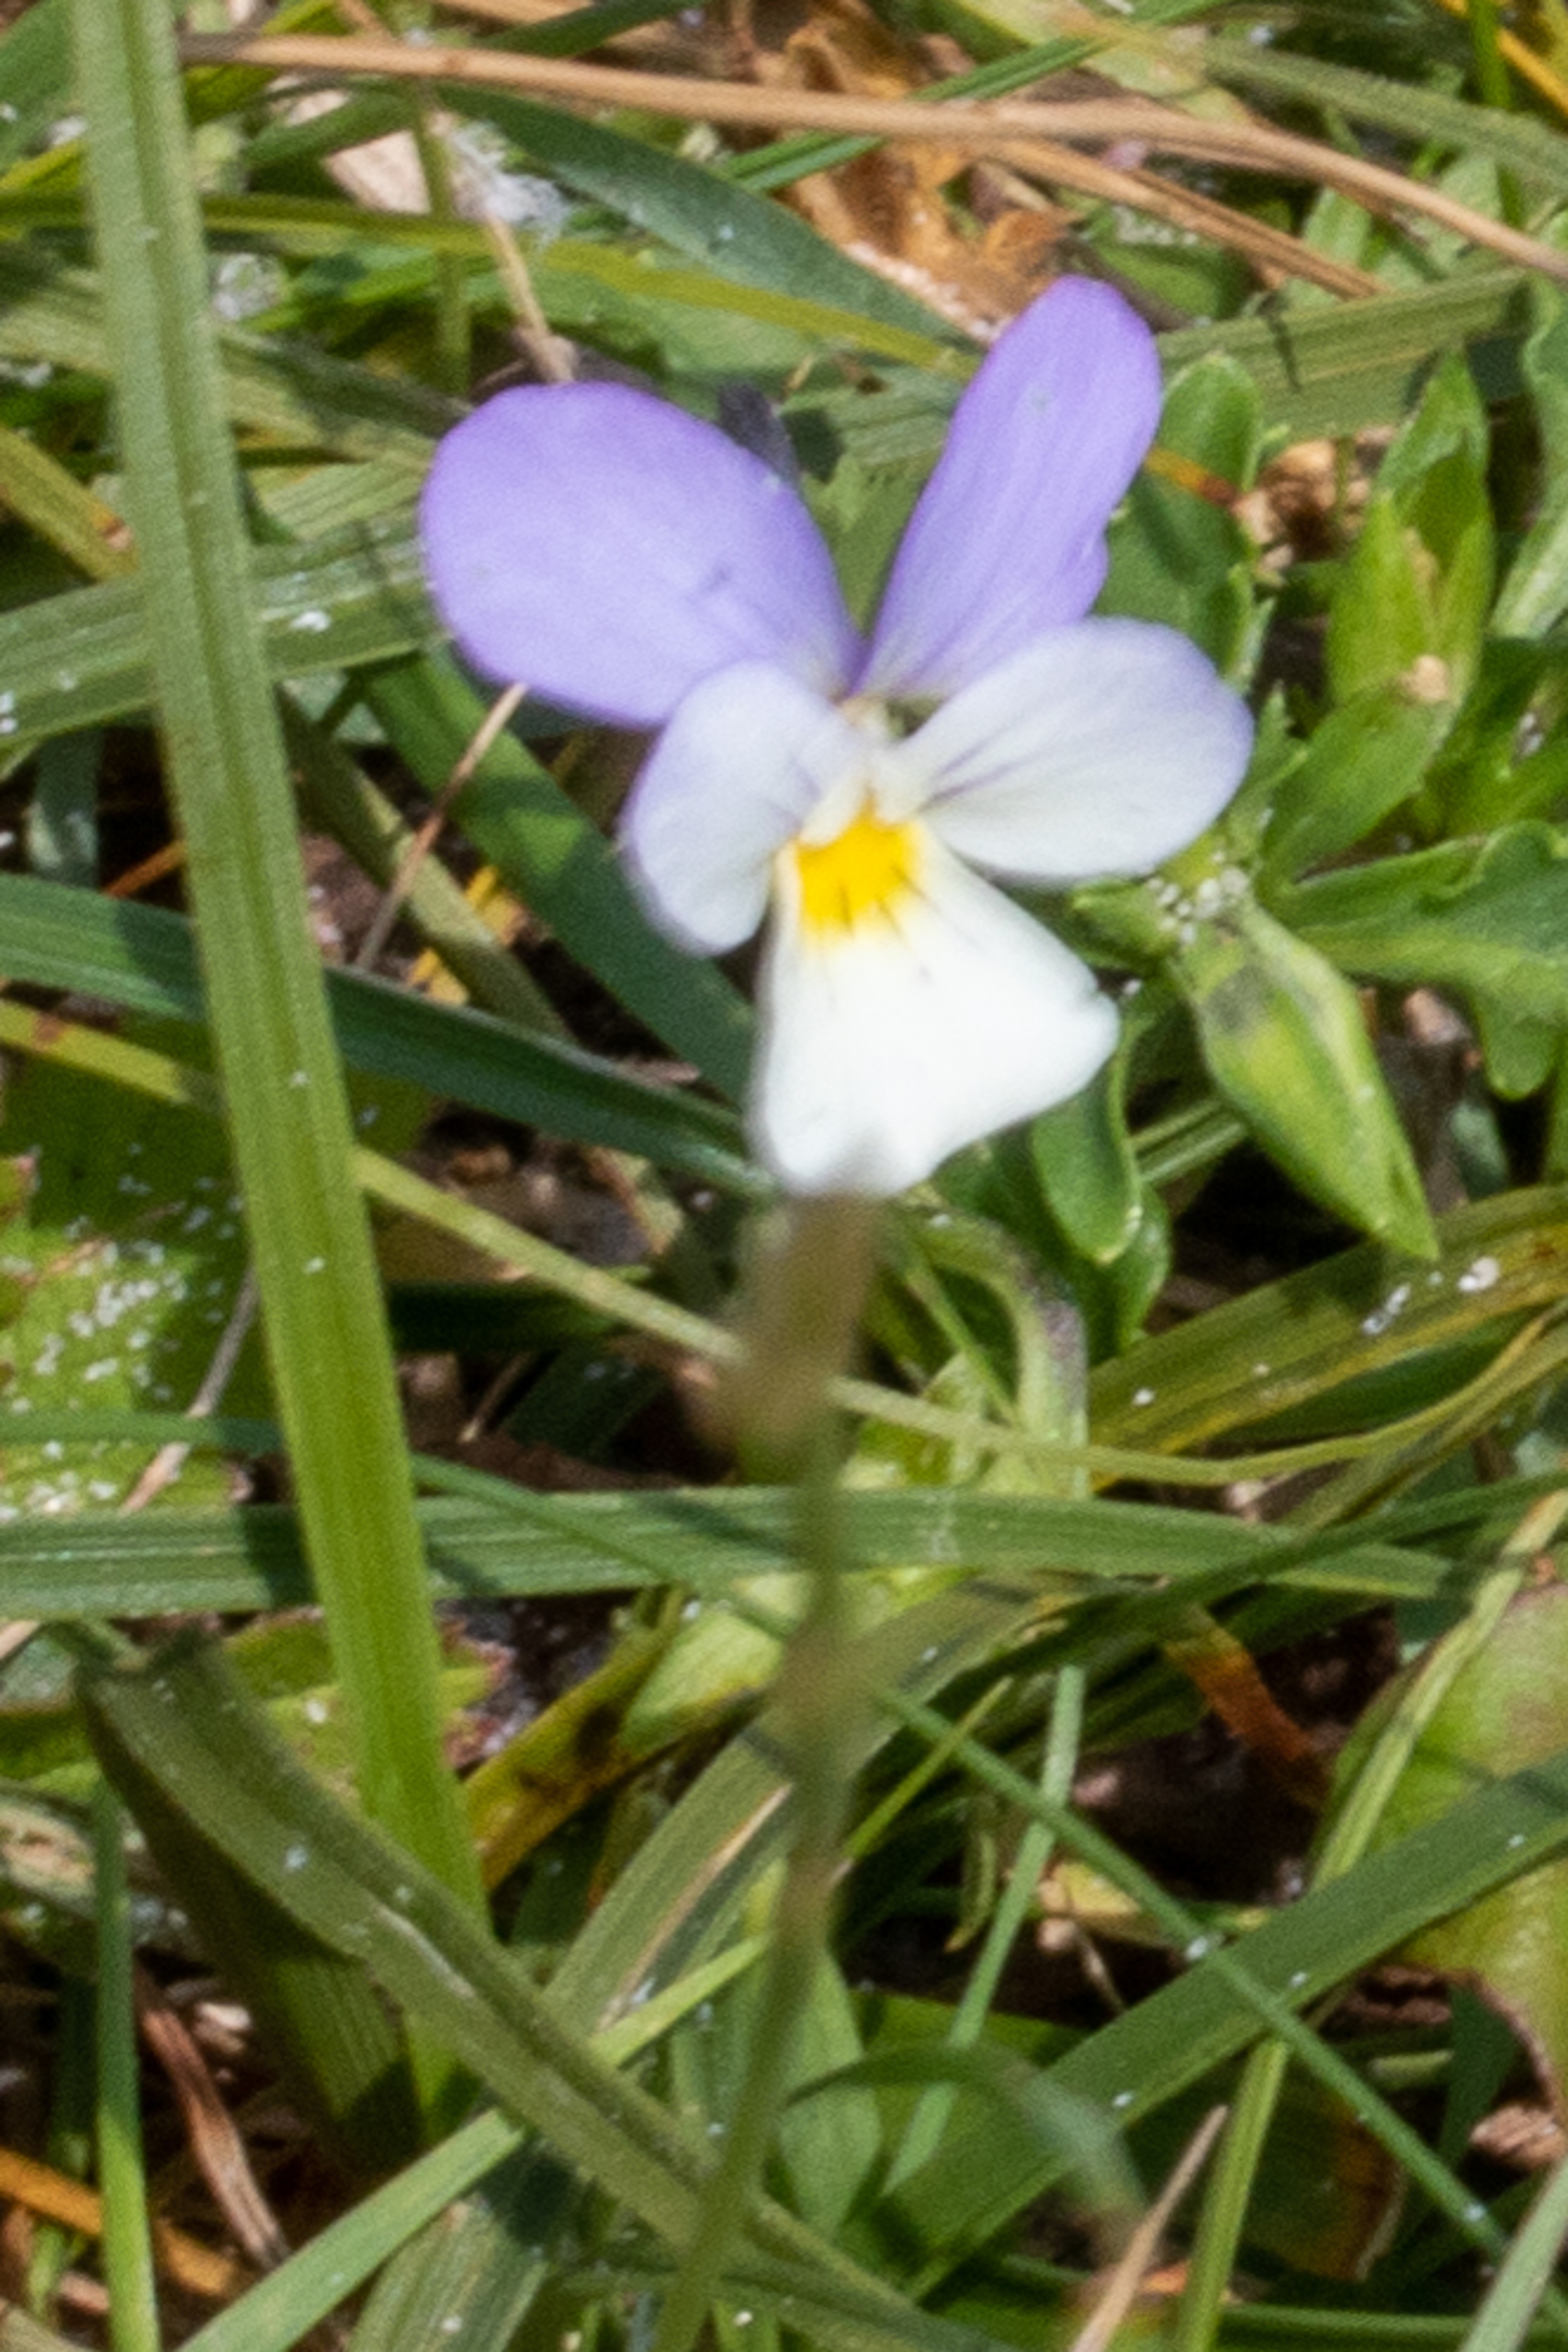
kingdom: Plantae
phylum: Tracheophyta
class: Magnoliopsida
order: Malpighiales
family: Violaceae
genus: Viola
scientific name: Viola tricolor
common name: Stedmoderblomst
